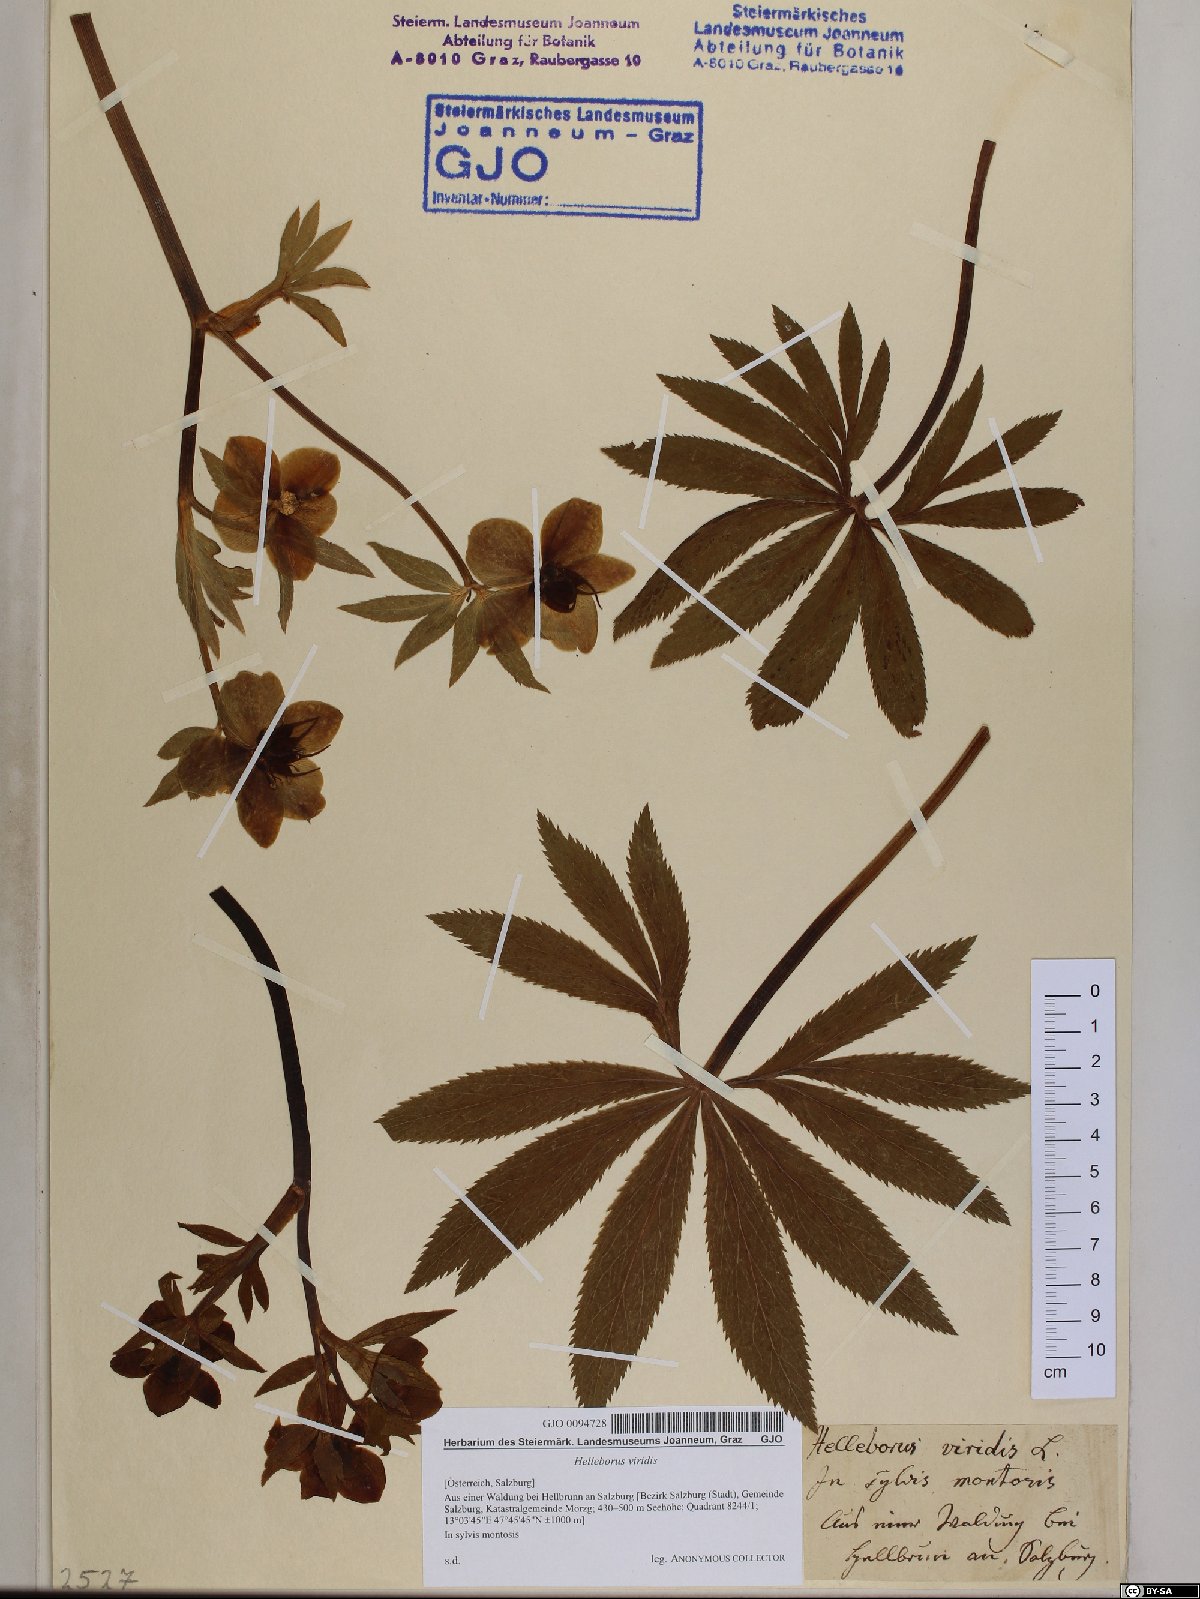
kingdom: Plantae
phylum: Tracheophyta
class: Magnoliopsida
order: Ranunculales
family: Ranunculaceae
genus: Helleborus
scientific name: Helleborus viridis
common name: Green hellebore
